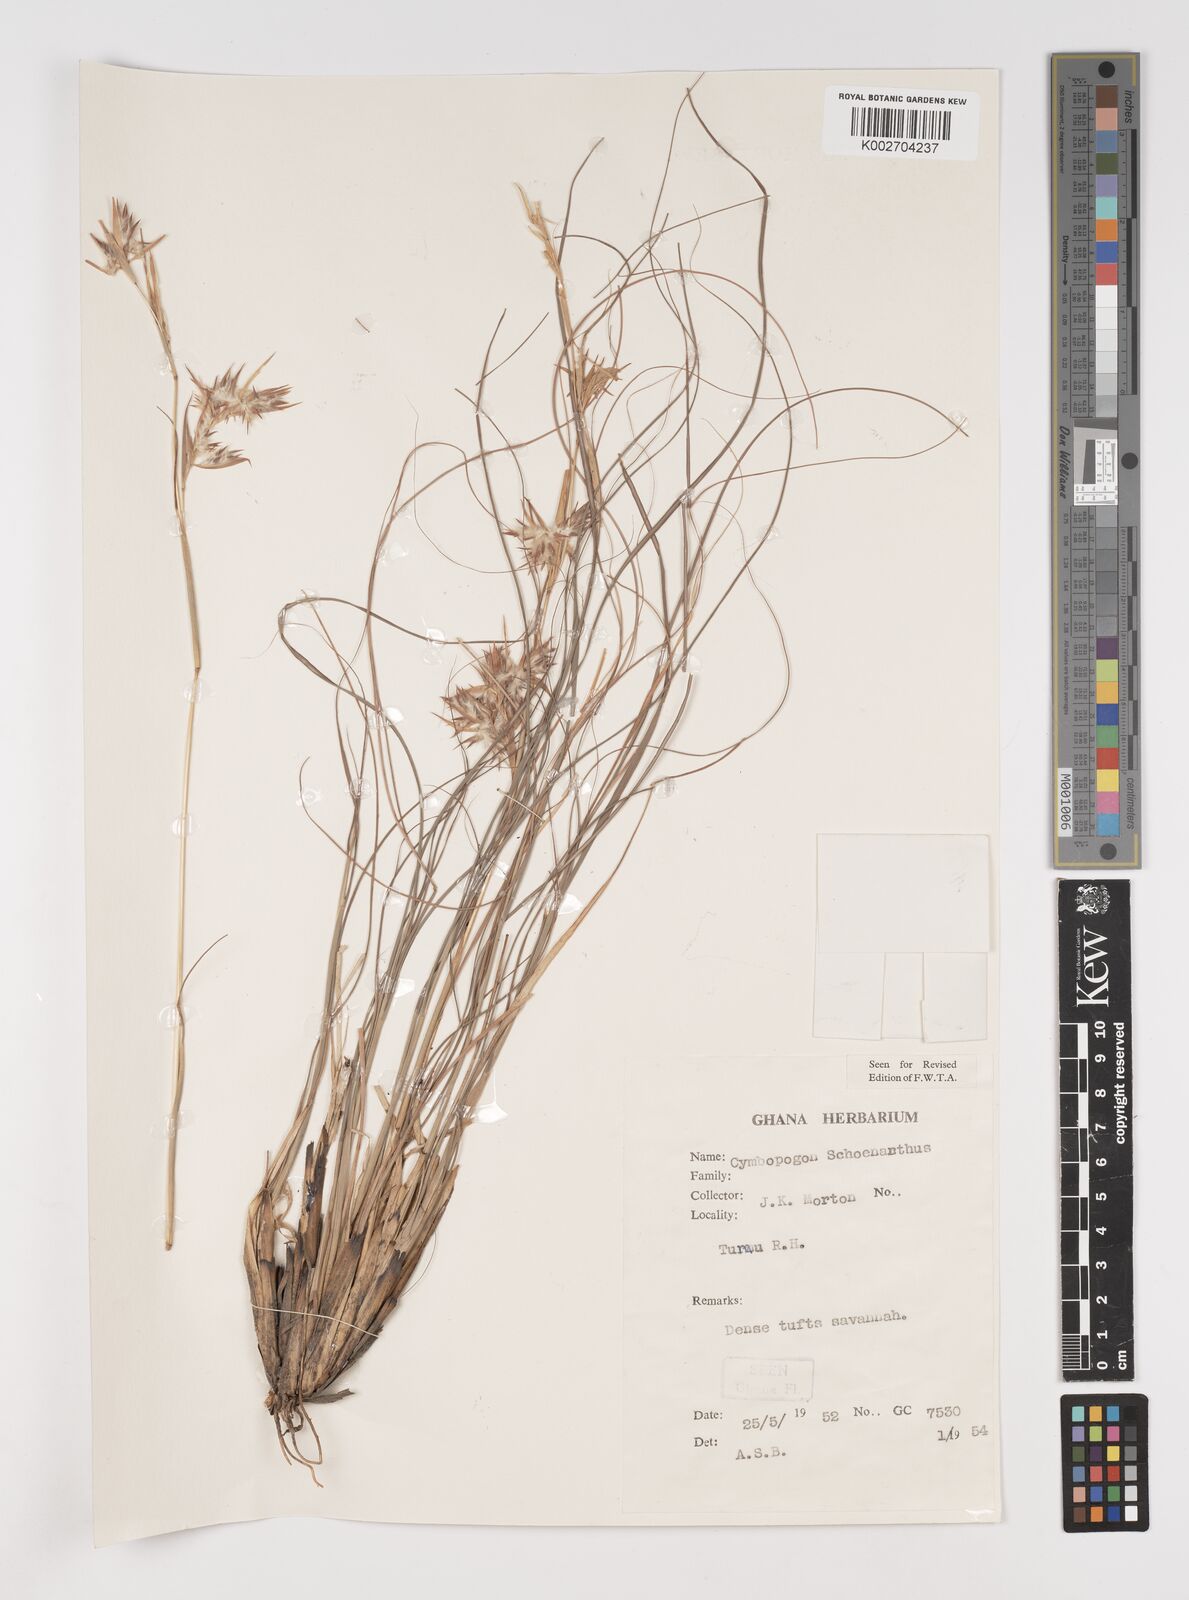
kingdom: Plantae
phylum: Tracheophyta
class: Liliopsida
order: Poales
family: Poaceae
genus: Cymbopogon
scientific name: Cymbopogon schoenanthus
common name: Geranium grass
